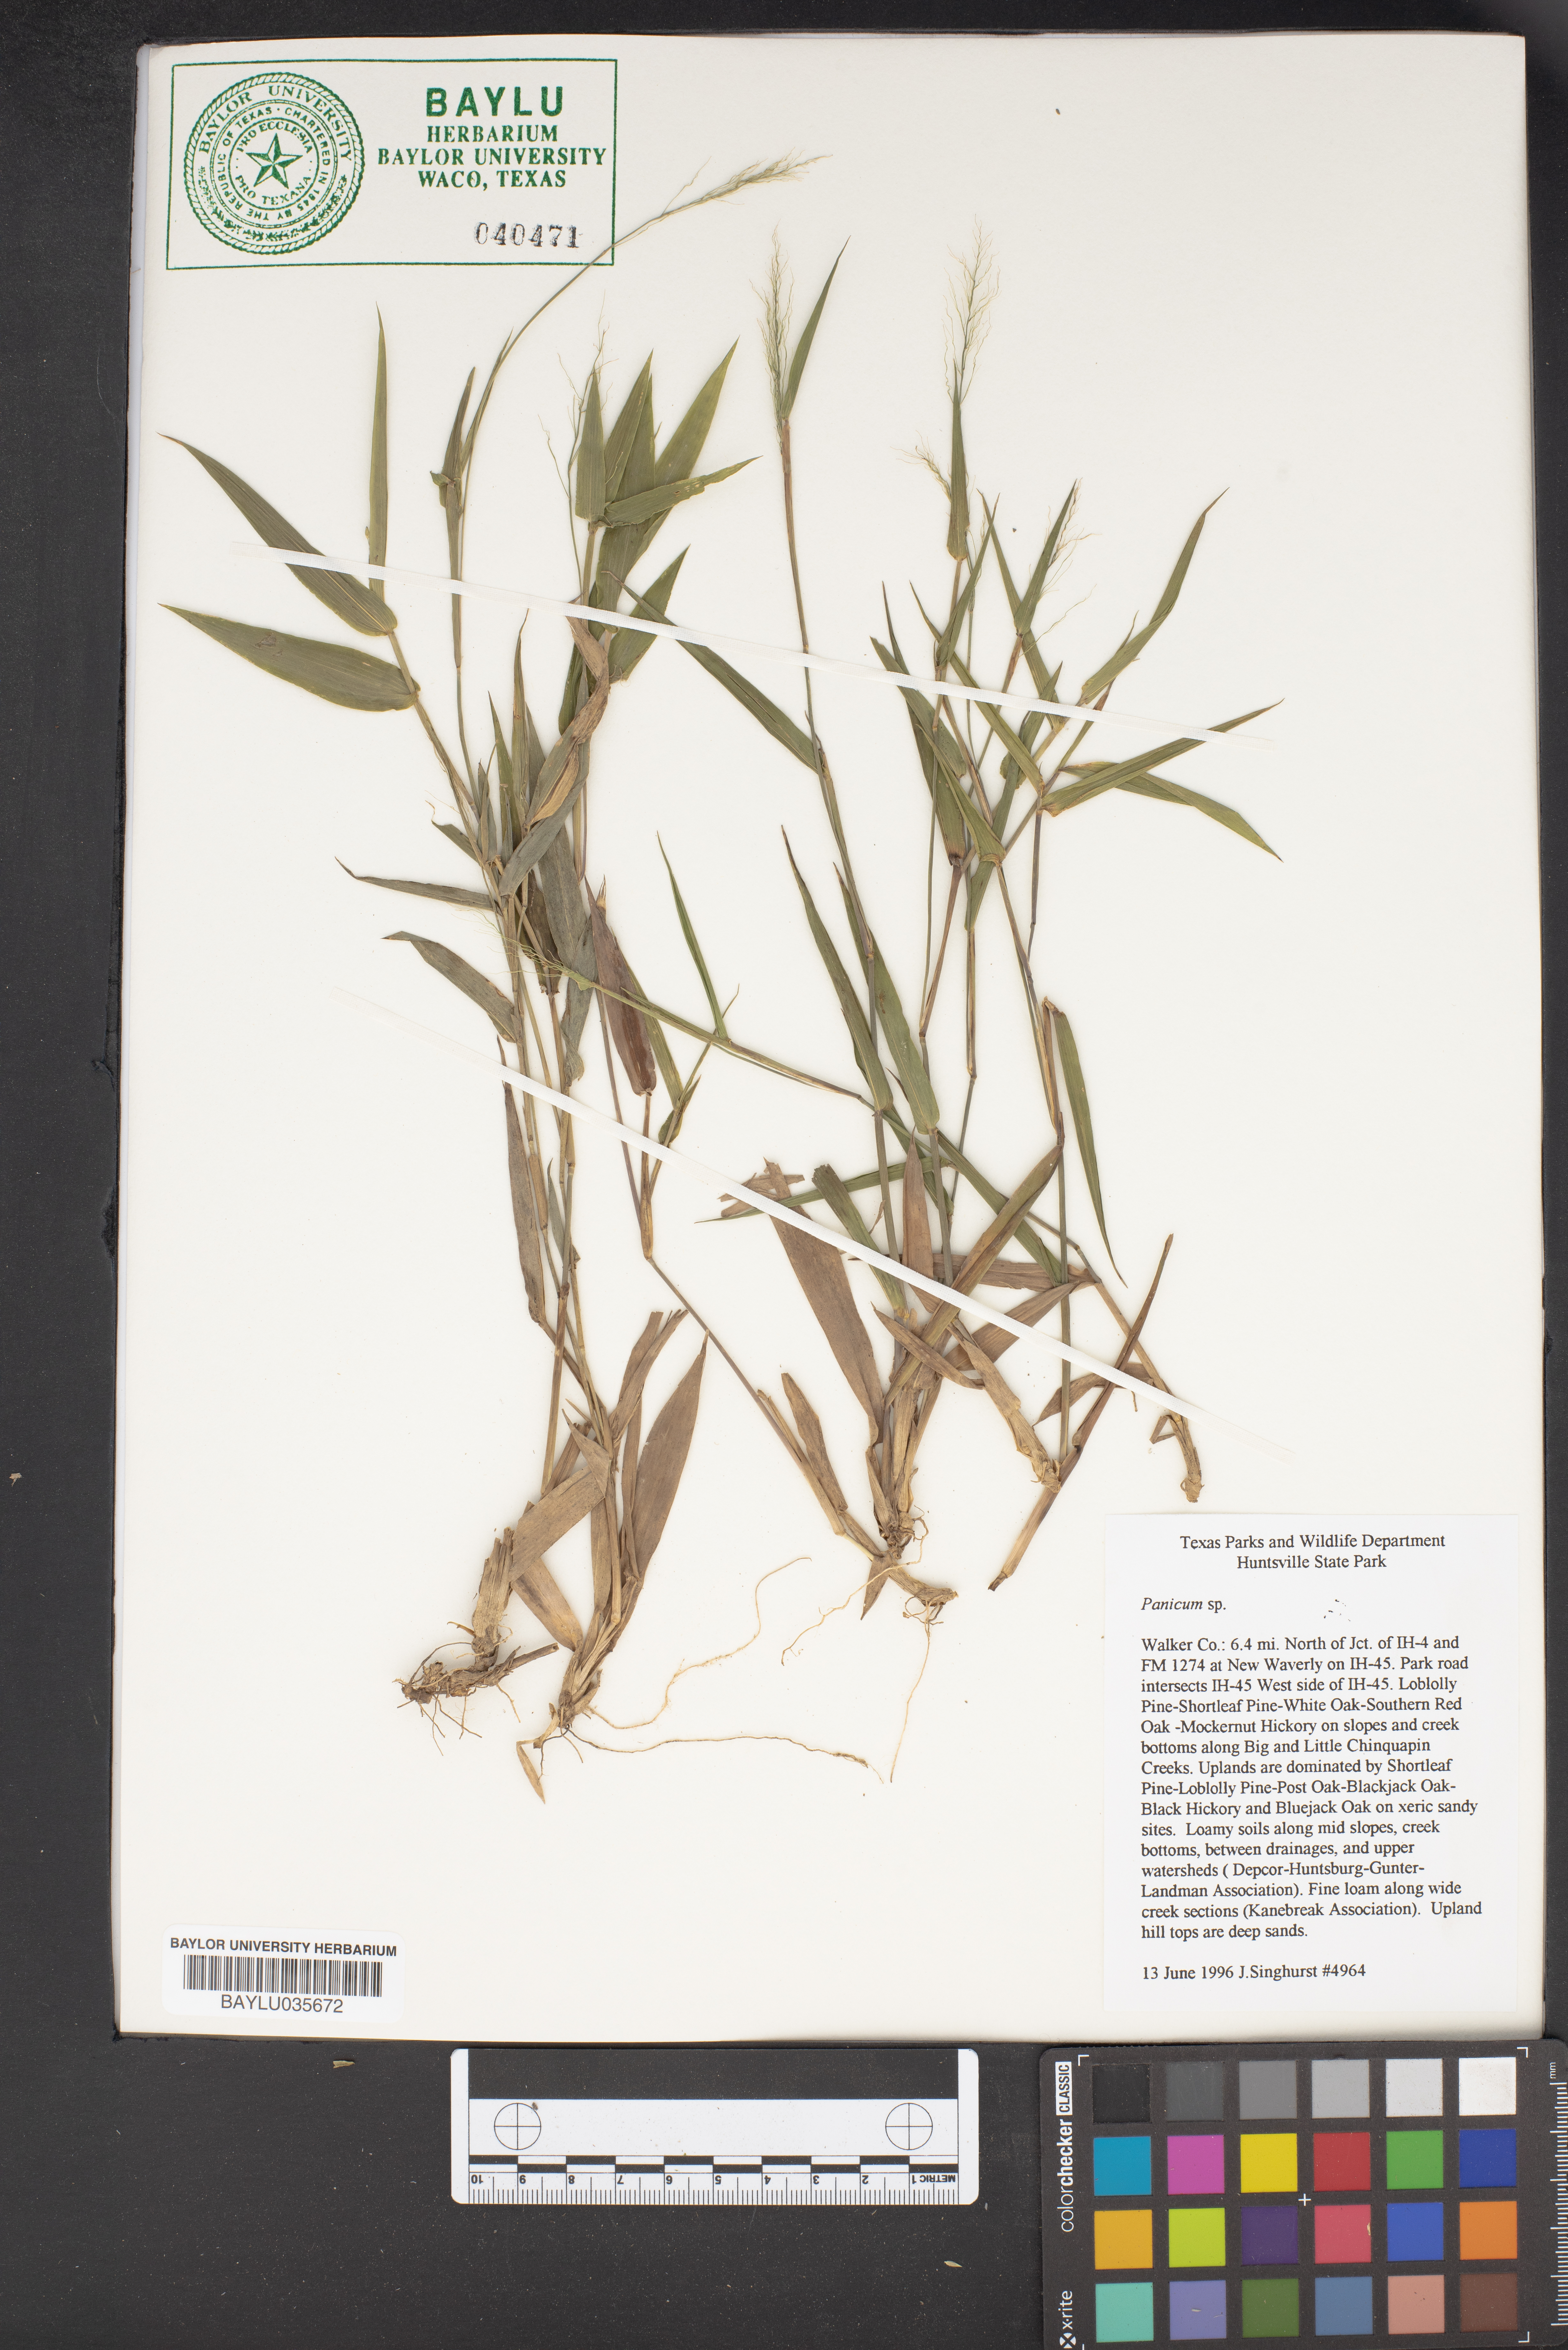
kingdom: Plantae
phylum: Tracheophyta
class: Liliopsida
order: Poales
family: Poaceae
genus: Panicum
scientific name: Panicum
